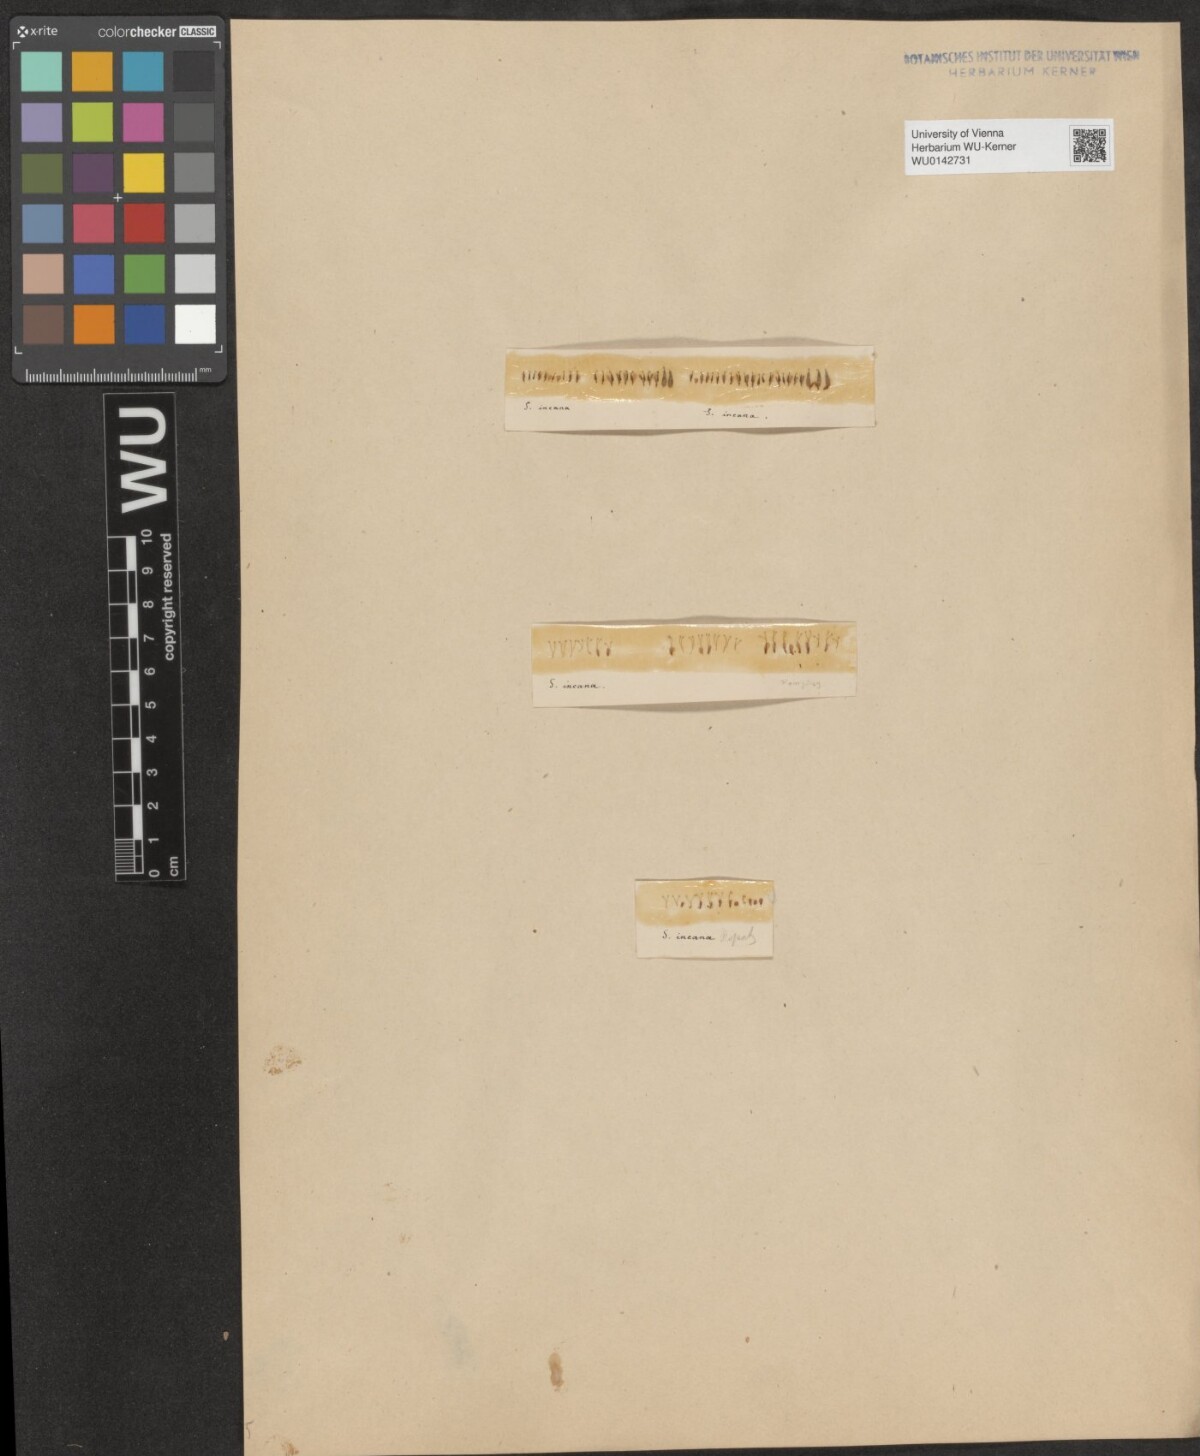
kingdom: Plantae
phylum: Tracheophyta
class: Magnoliopsida
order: Malpighiales
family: Salicaceae
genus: Salix
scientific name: Salix eleagnos
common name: Elaeagnus willow
